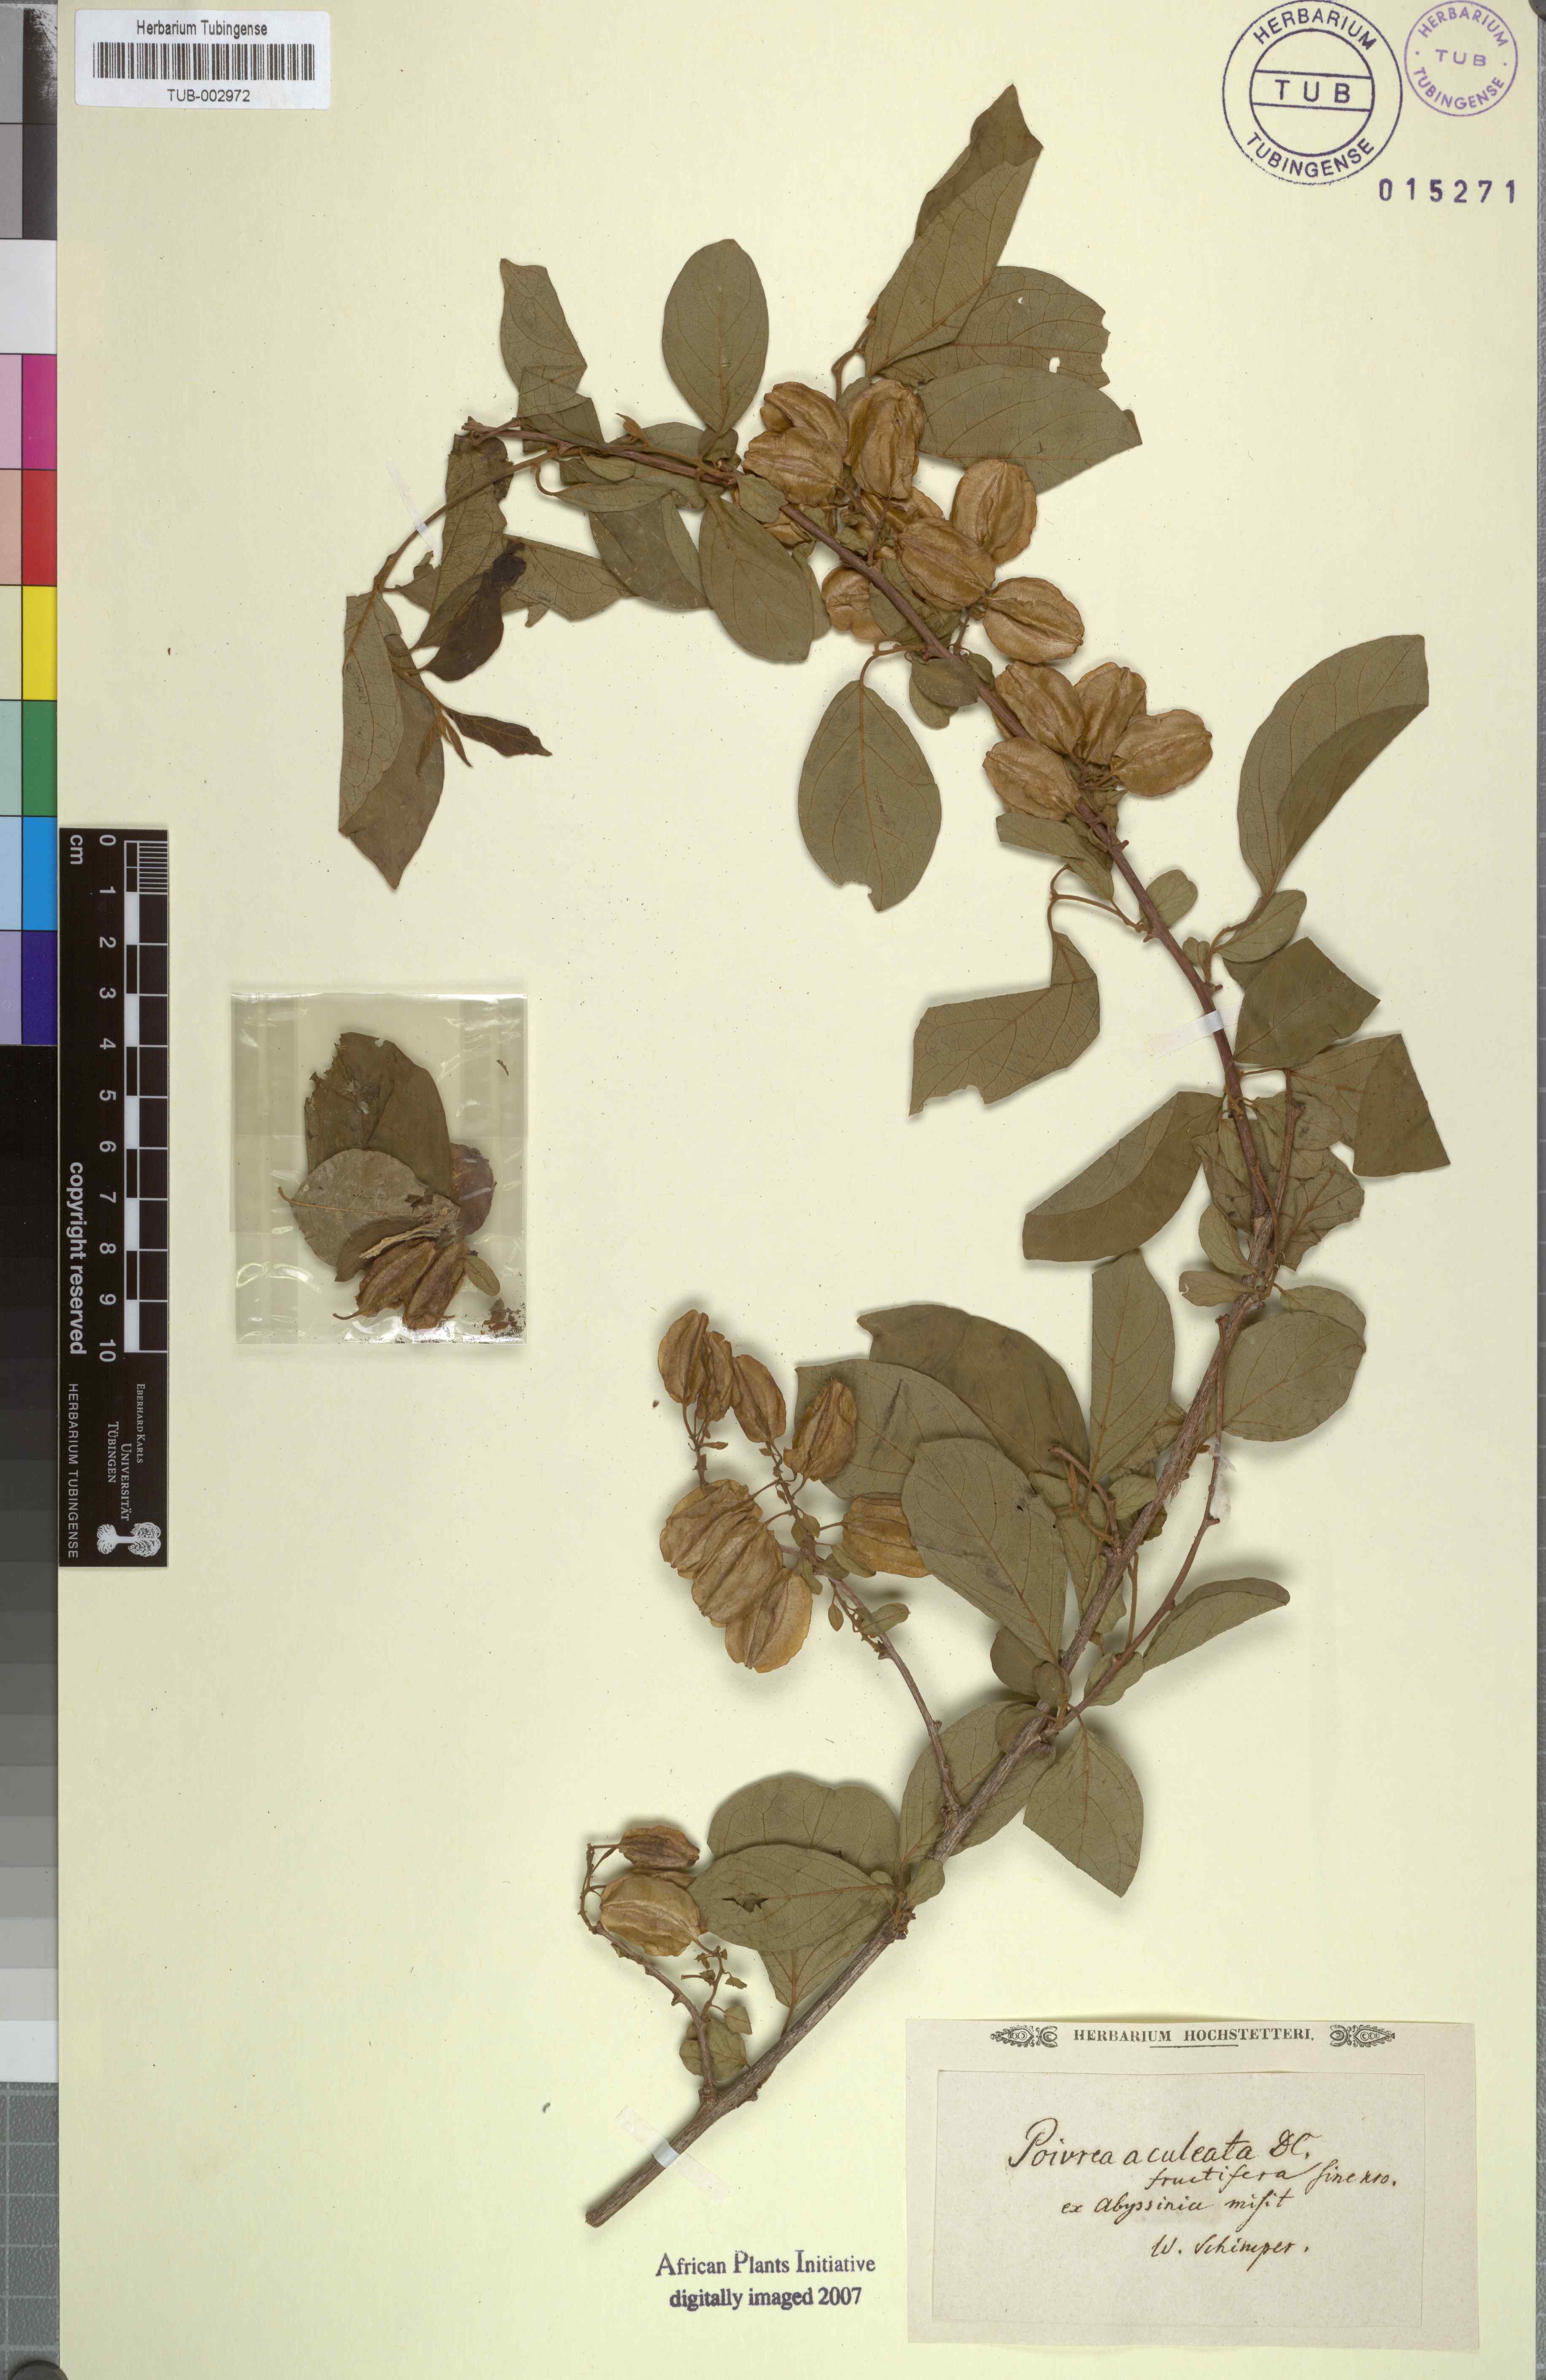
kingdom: Plantae
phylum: Tracheophyta
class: Magnoliopsida
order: Myrtales
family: Combretaceae
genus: Combretum
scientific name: Combretum aculeatum
